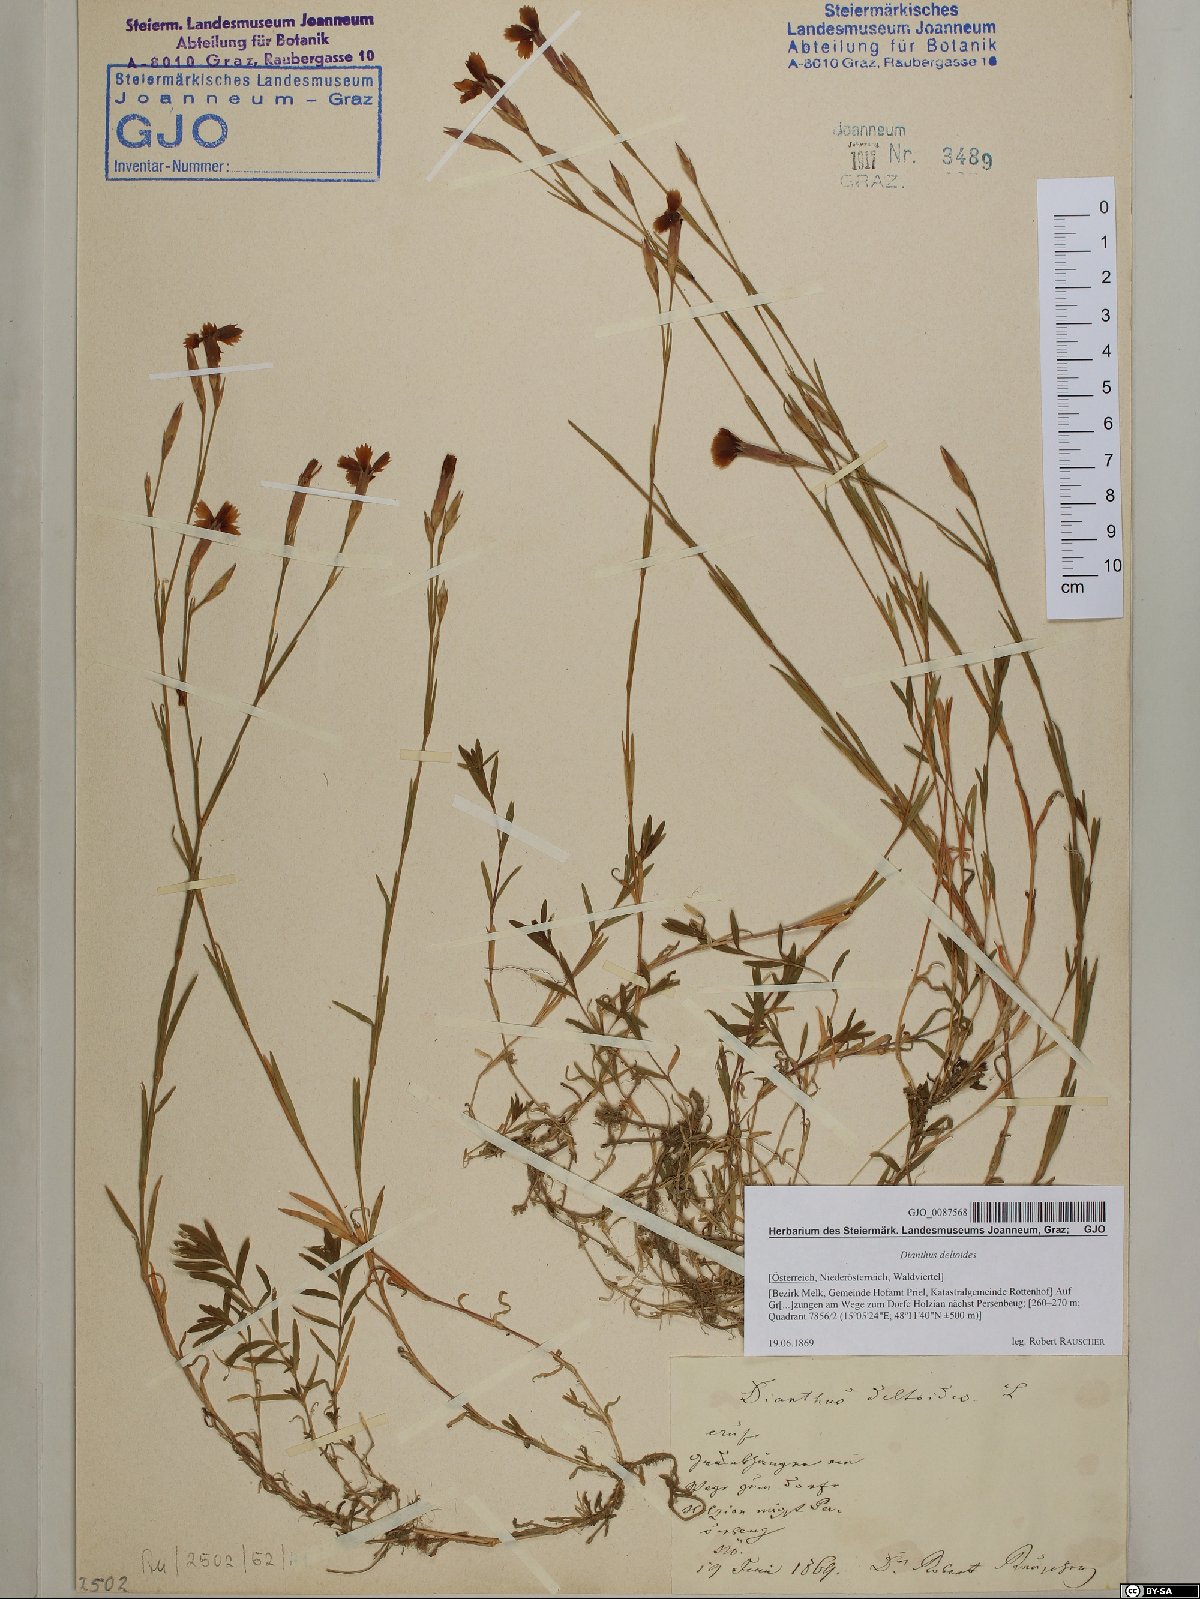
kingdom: Plantae
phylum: Tracheophyta
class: Magnoliopsida
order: Caryophyllales
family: Caryophyllaceae
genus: Dianthus
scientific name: Dianthus deltoides
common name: Maiden pink
